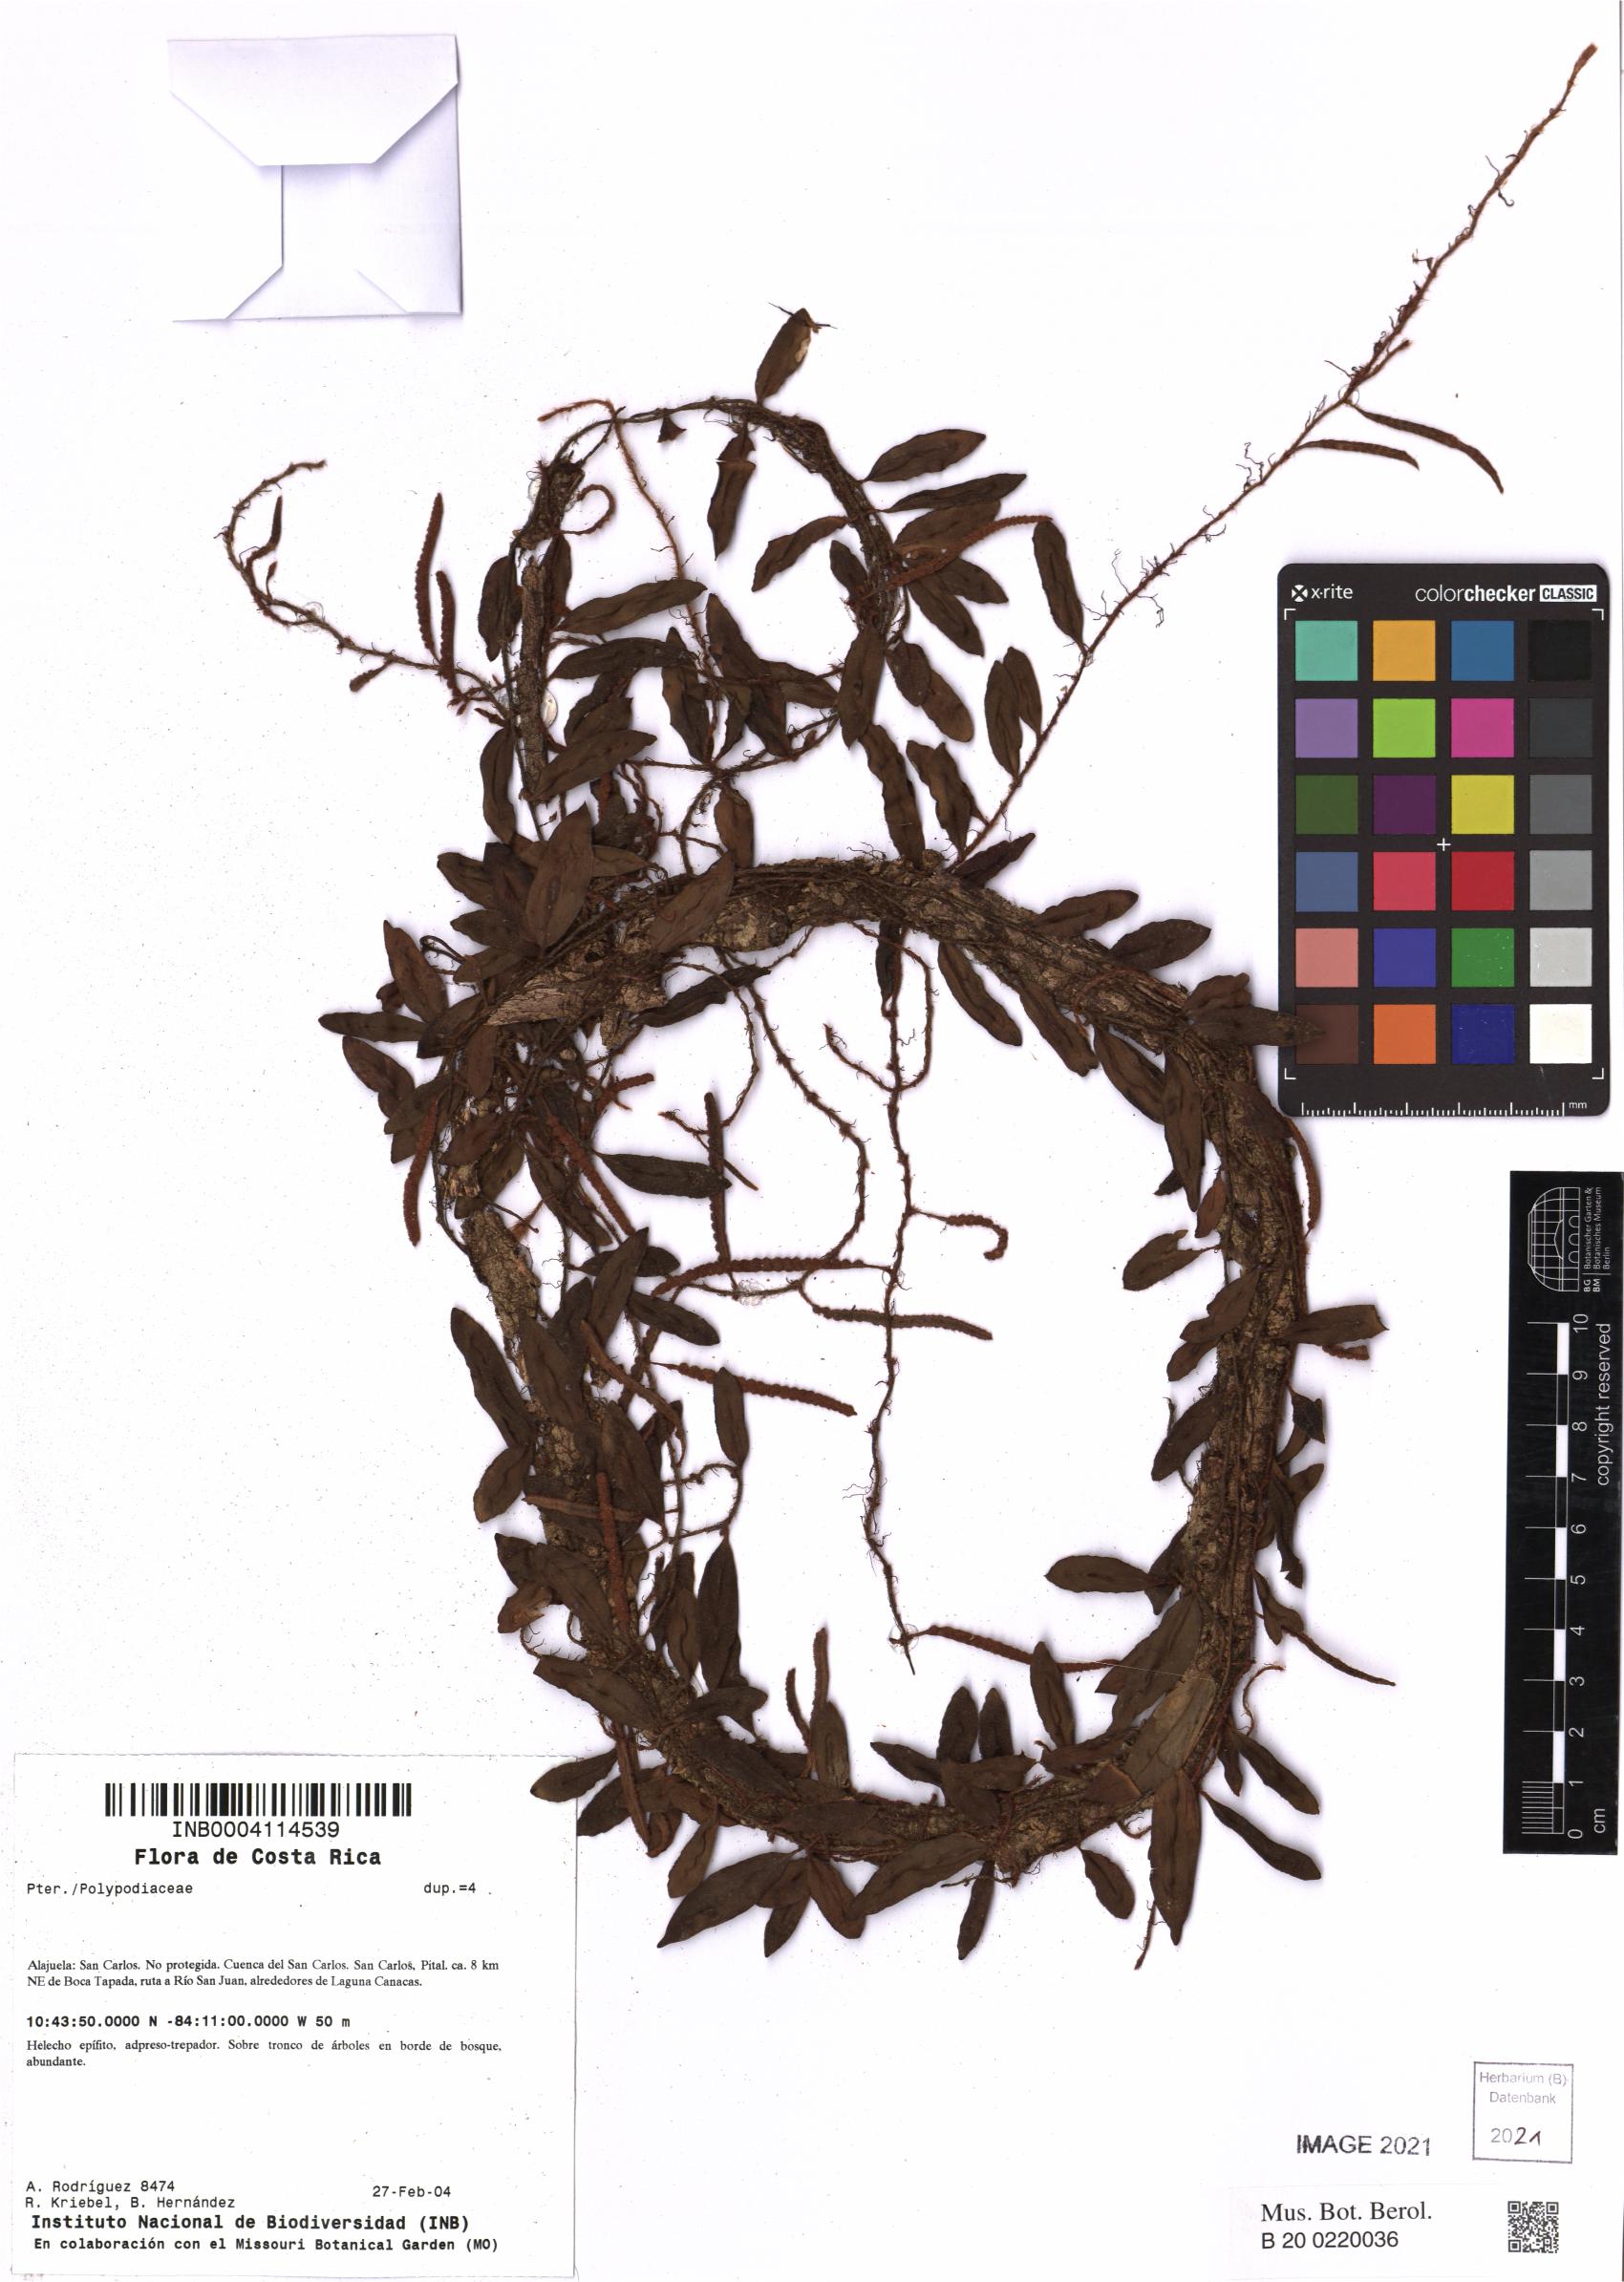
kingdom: Plantae
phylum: Tracheophyta
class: Polypodiopsida
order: Polypodiales
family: Polypodiaceae
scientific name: Polypodiaceae
